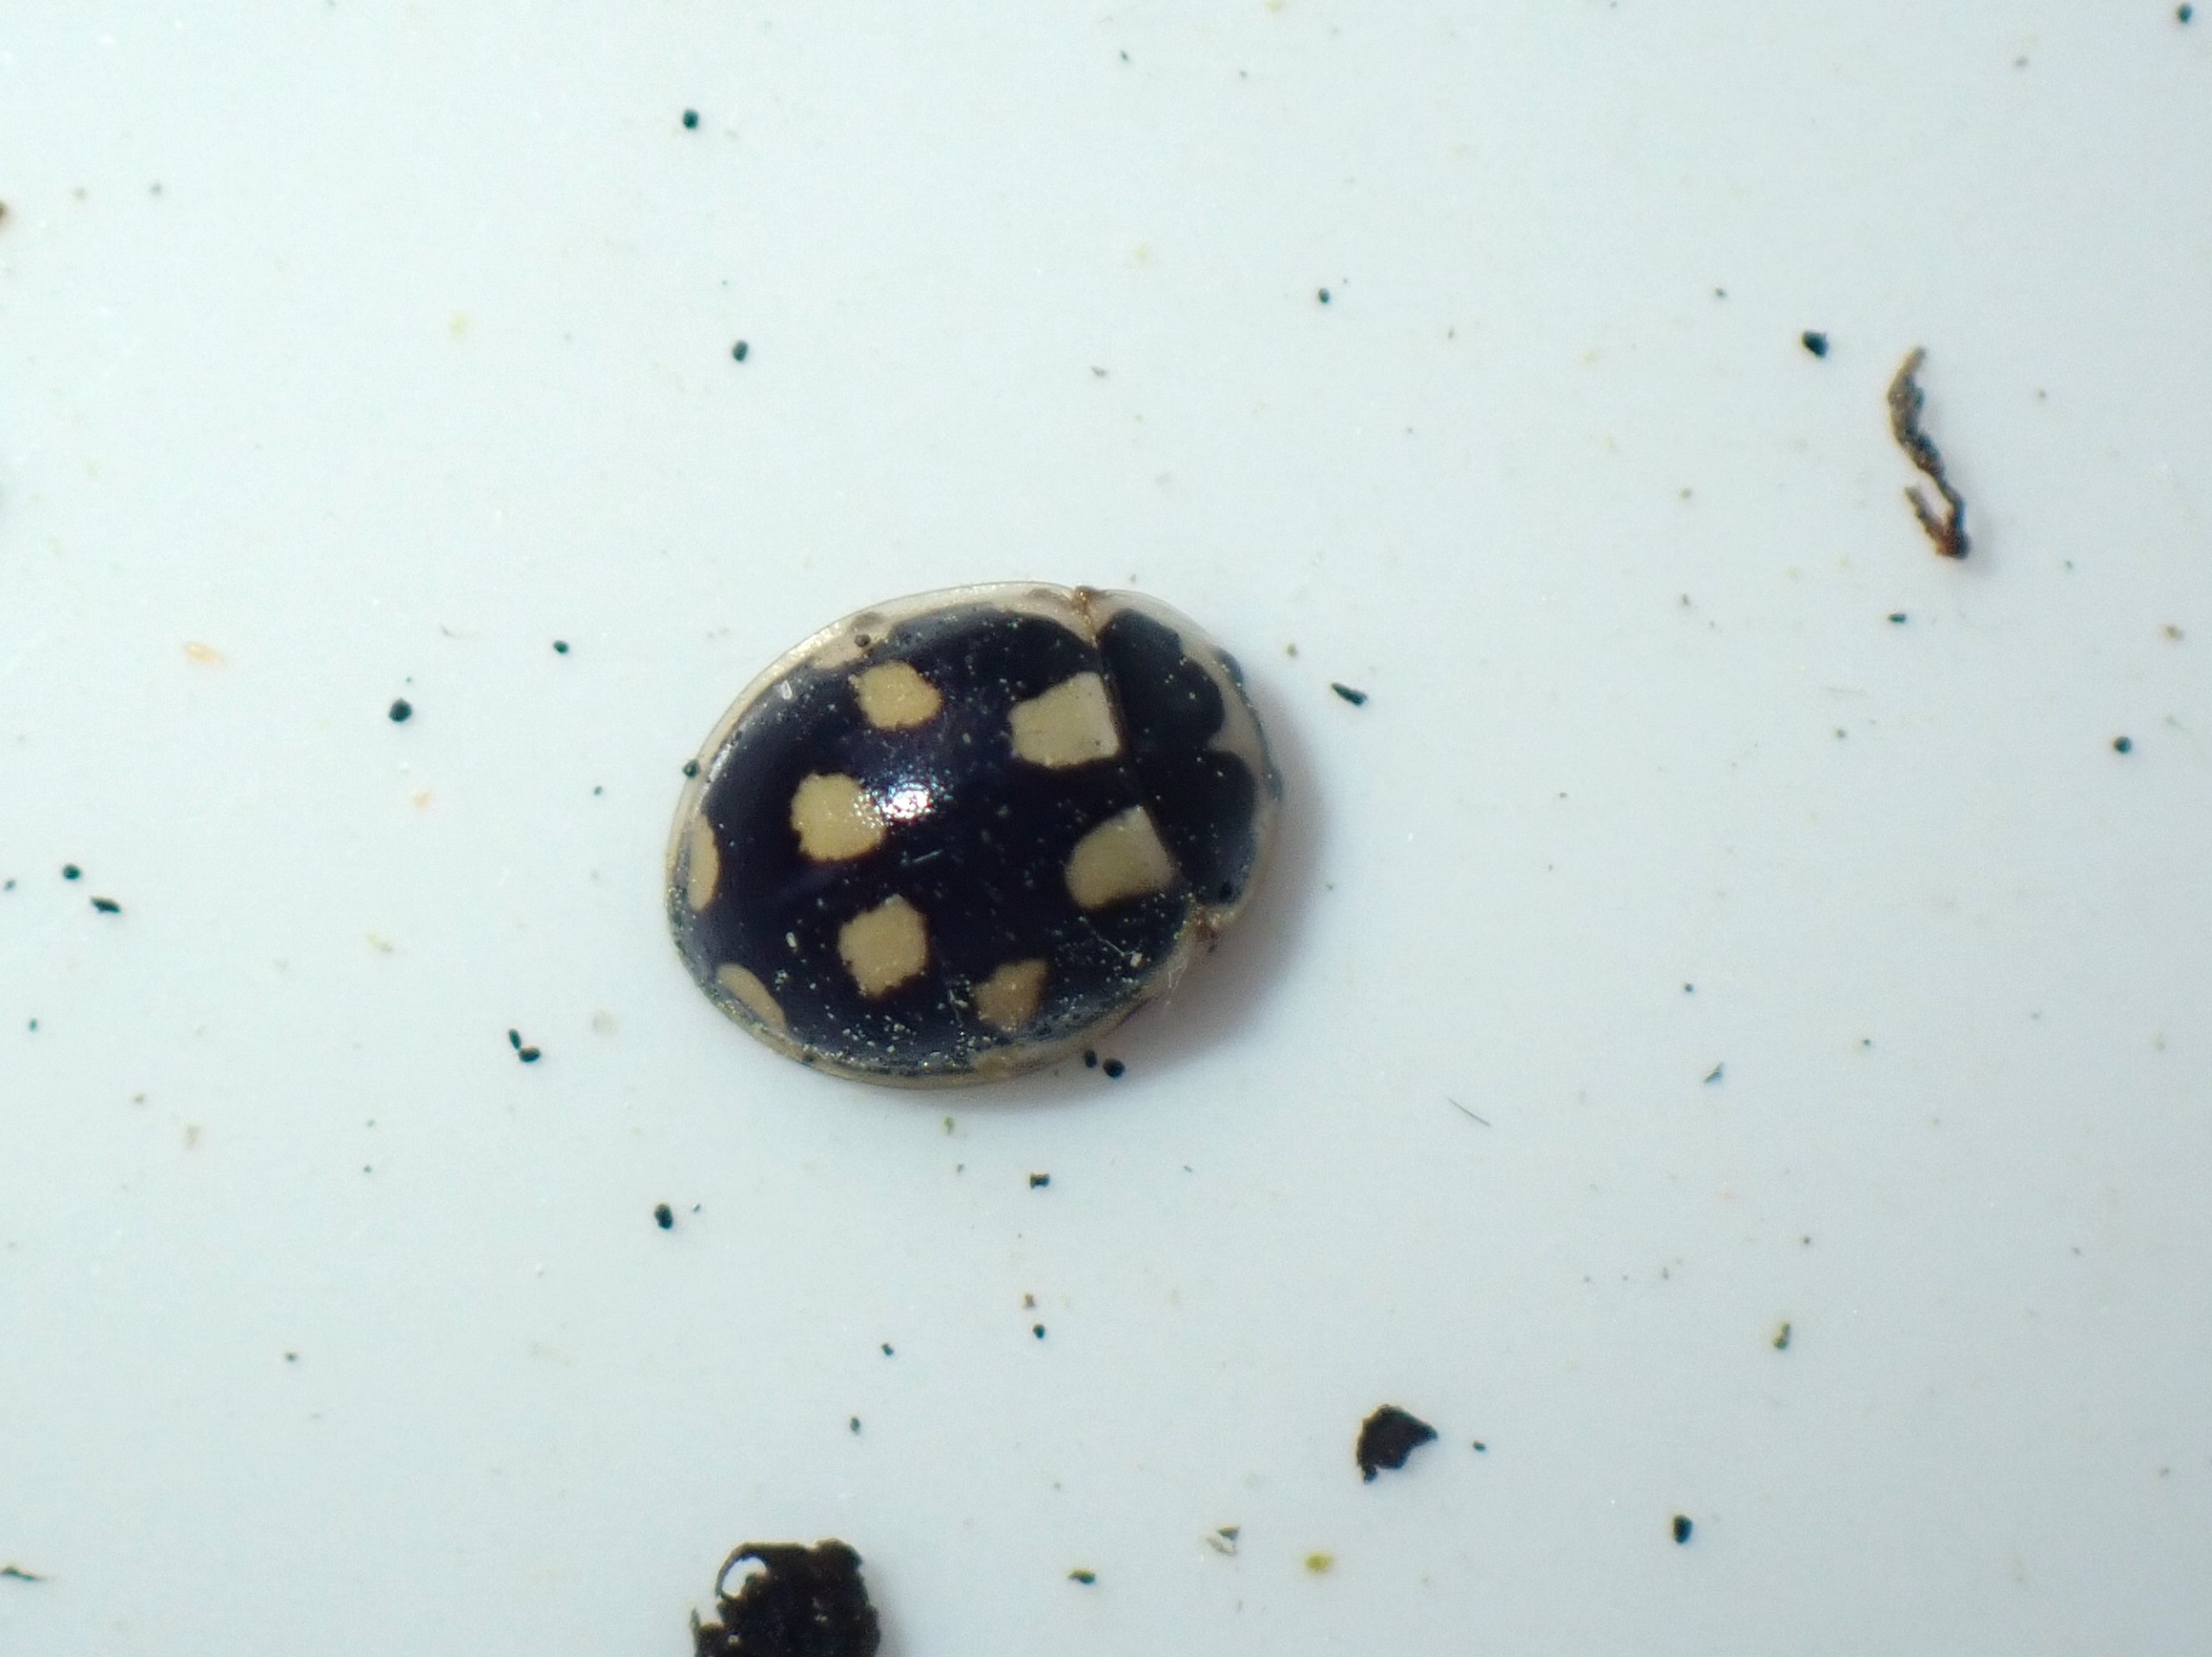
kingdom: Animalia
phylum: Arthropoda
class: Insecta
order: Coleoptera
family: Coccinellidae
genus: Propylaea
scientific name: Propylaea quatuordecimpunctata
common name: Skakbræt
